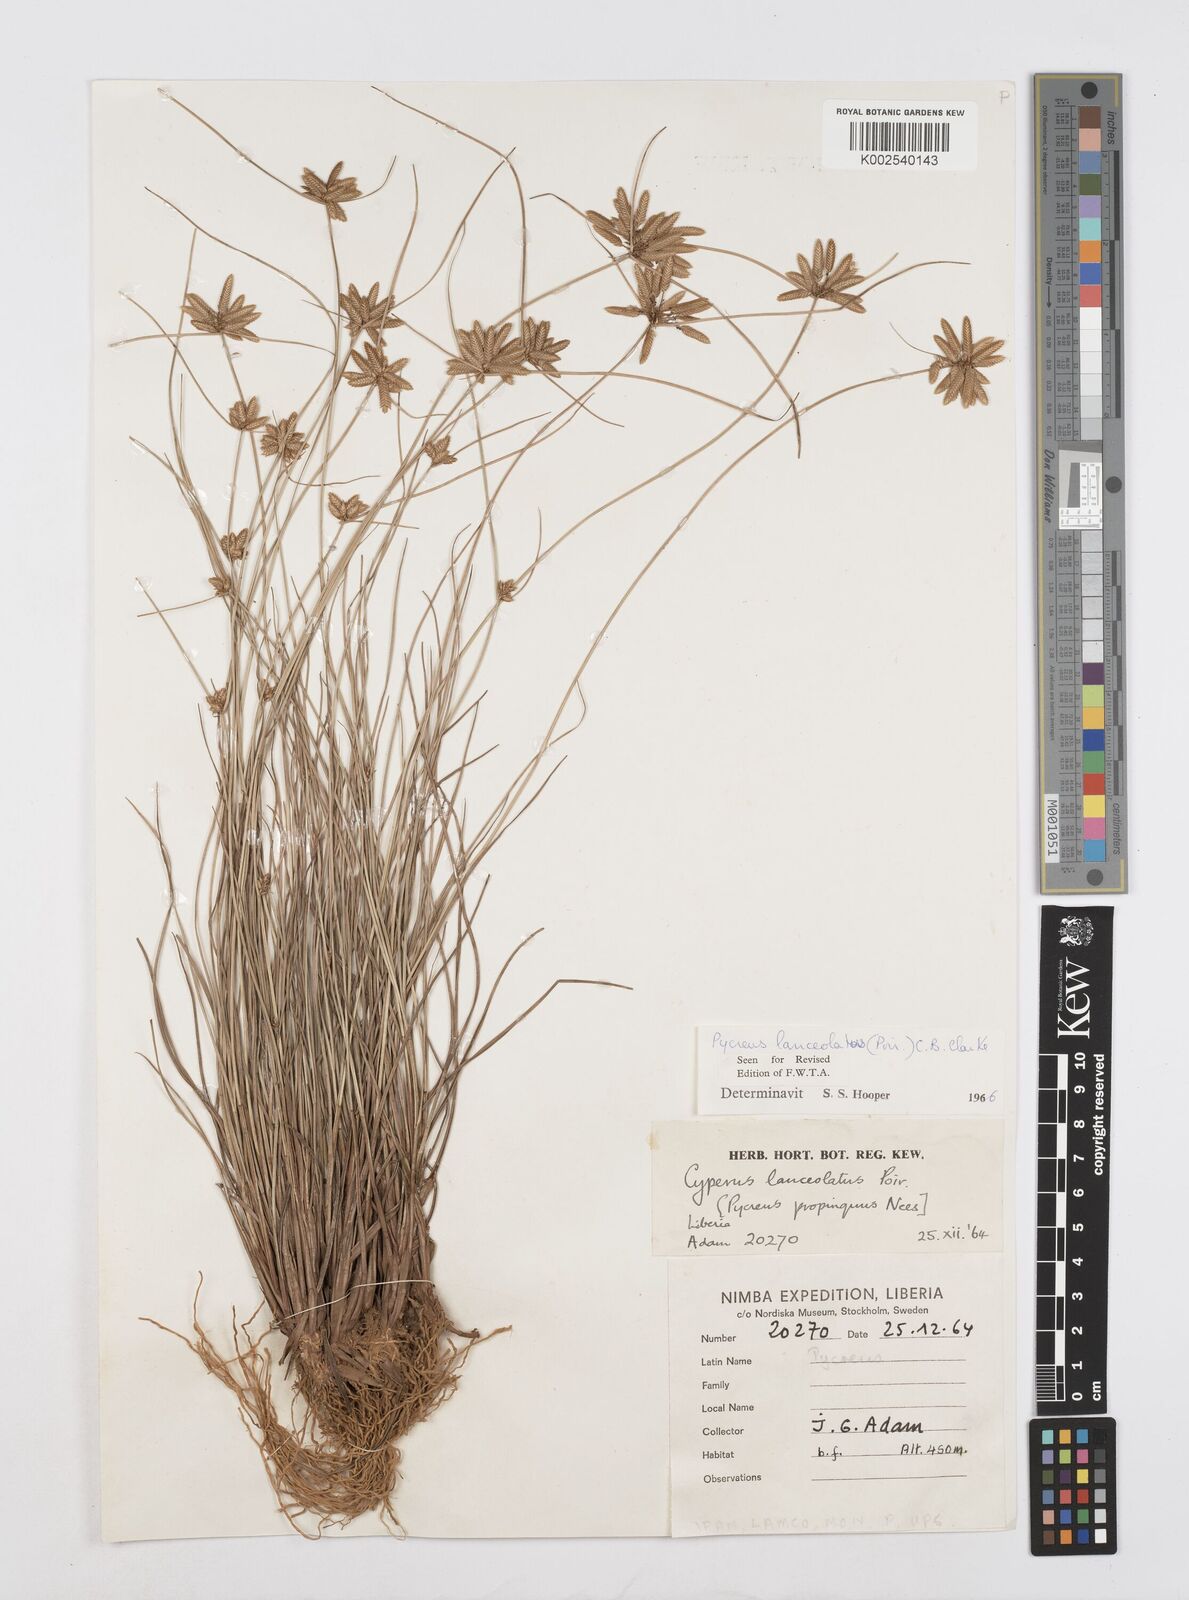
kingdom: Plantae
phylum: Tracheophyta
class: Liliopsida
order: Poales
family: Cyperaceae
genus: Cyperus
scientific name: Cyperus
